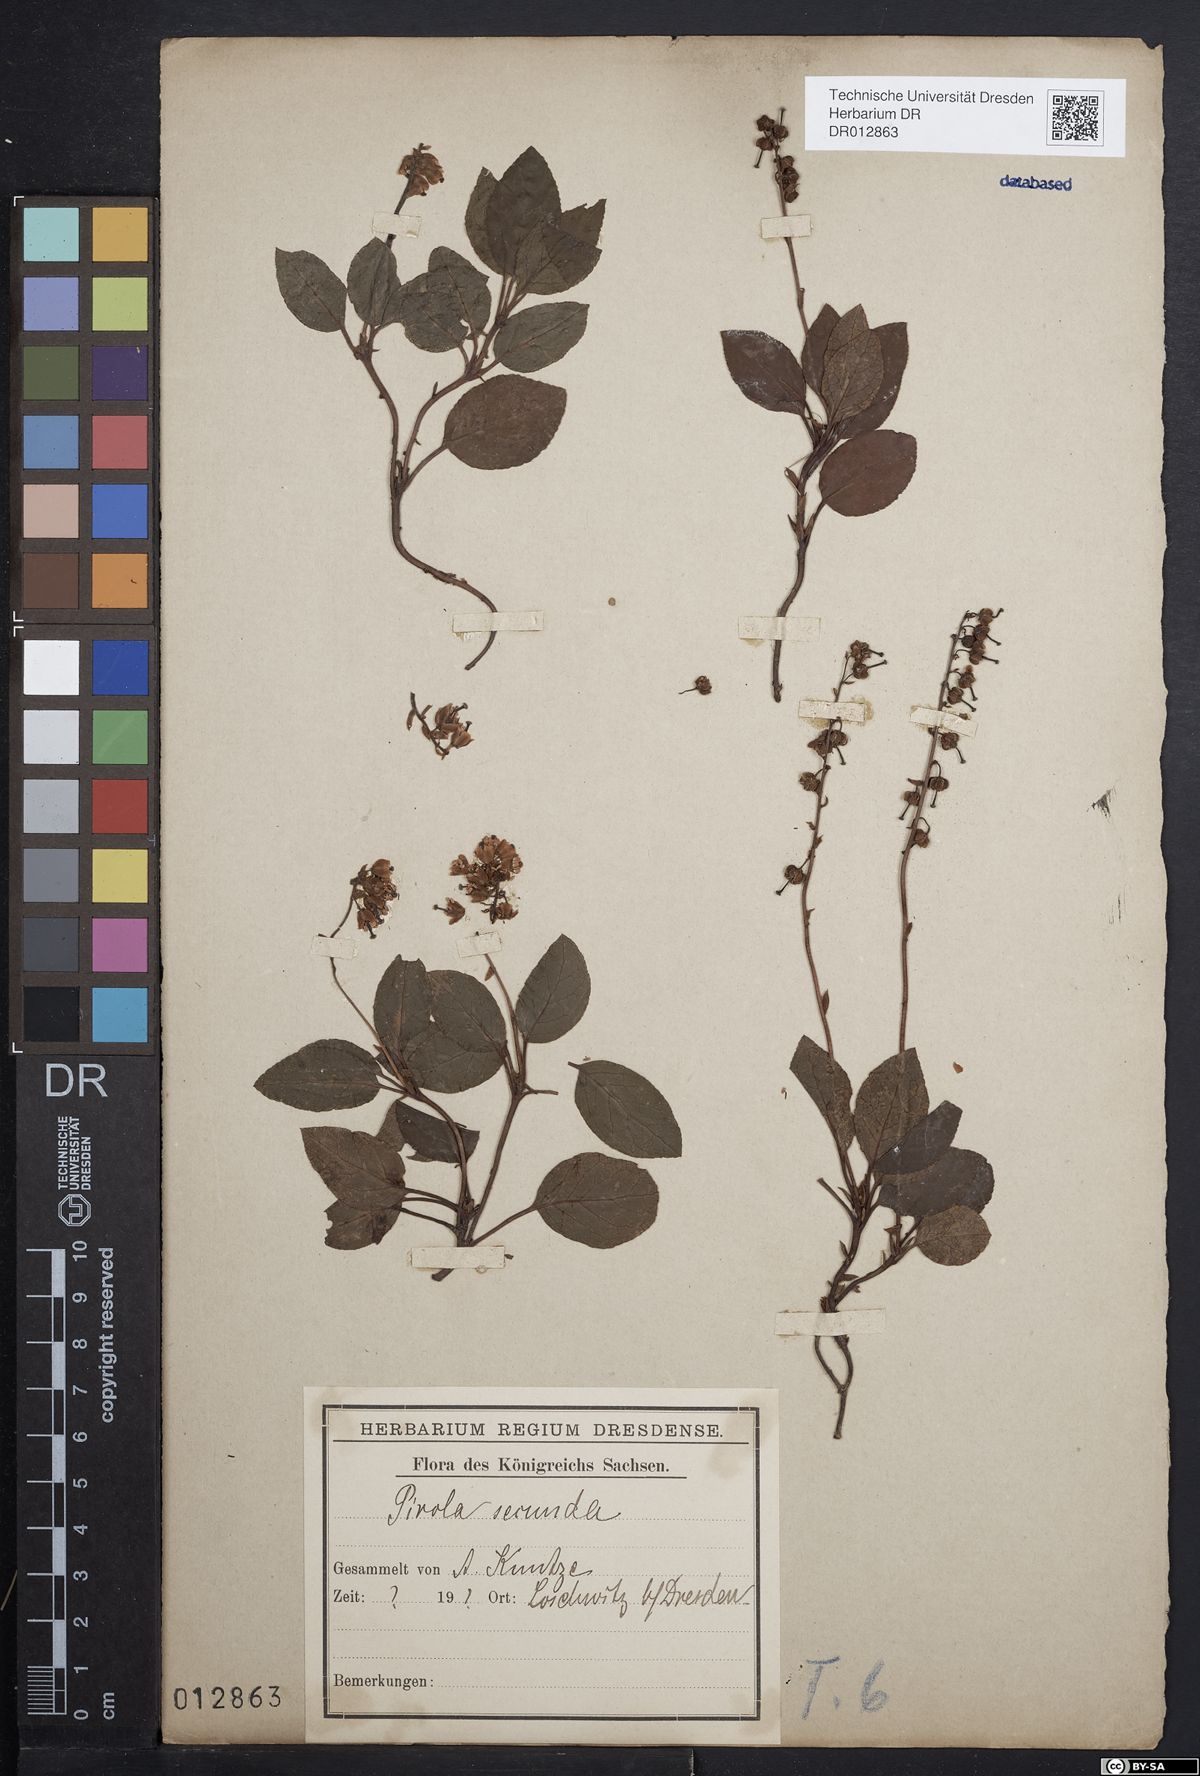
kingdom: Plantae
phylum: Tracheophyta
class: Magnoliopsida
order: Ericales
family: Ericaceae
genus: Orthilia
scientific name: Orthilia secunda
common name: One-sided orthilia
